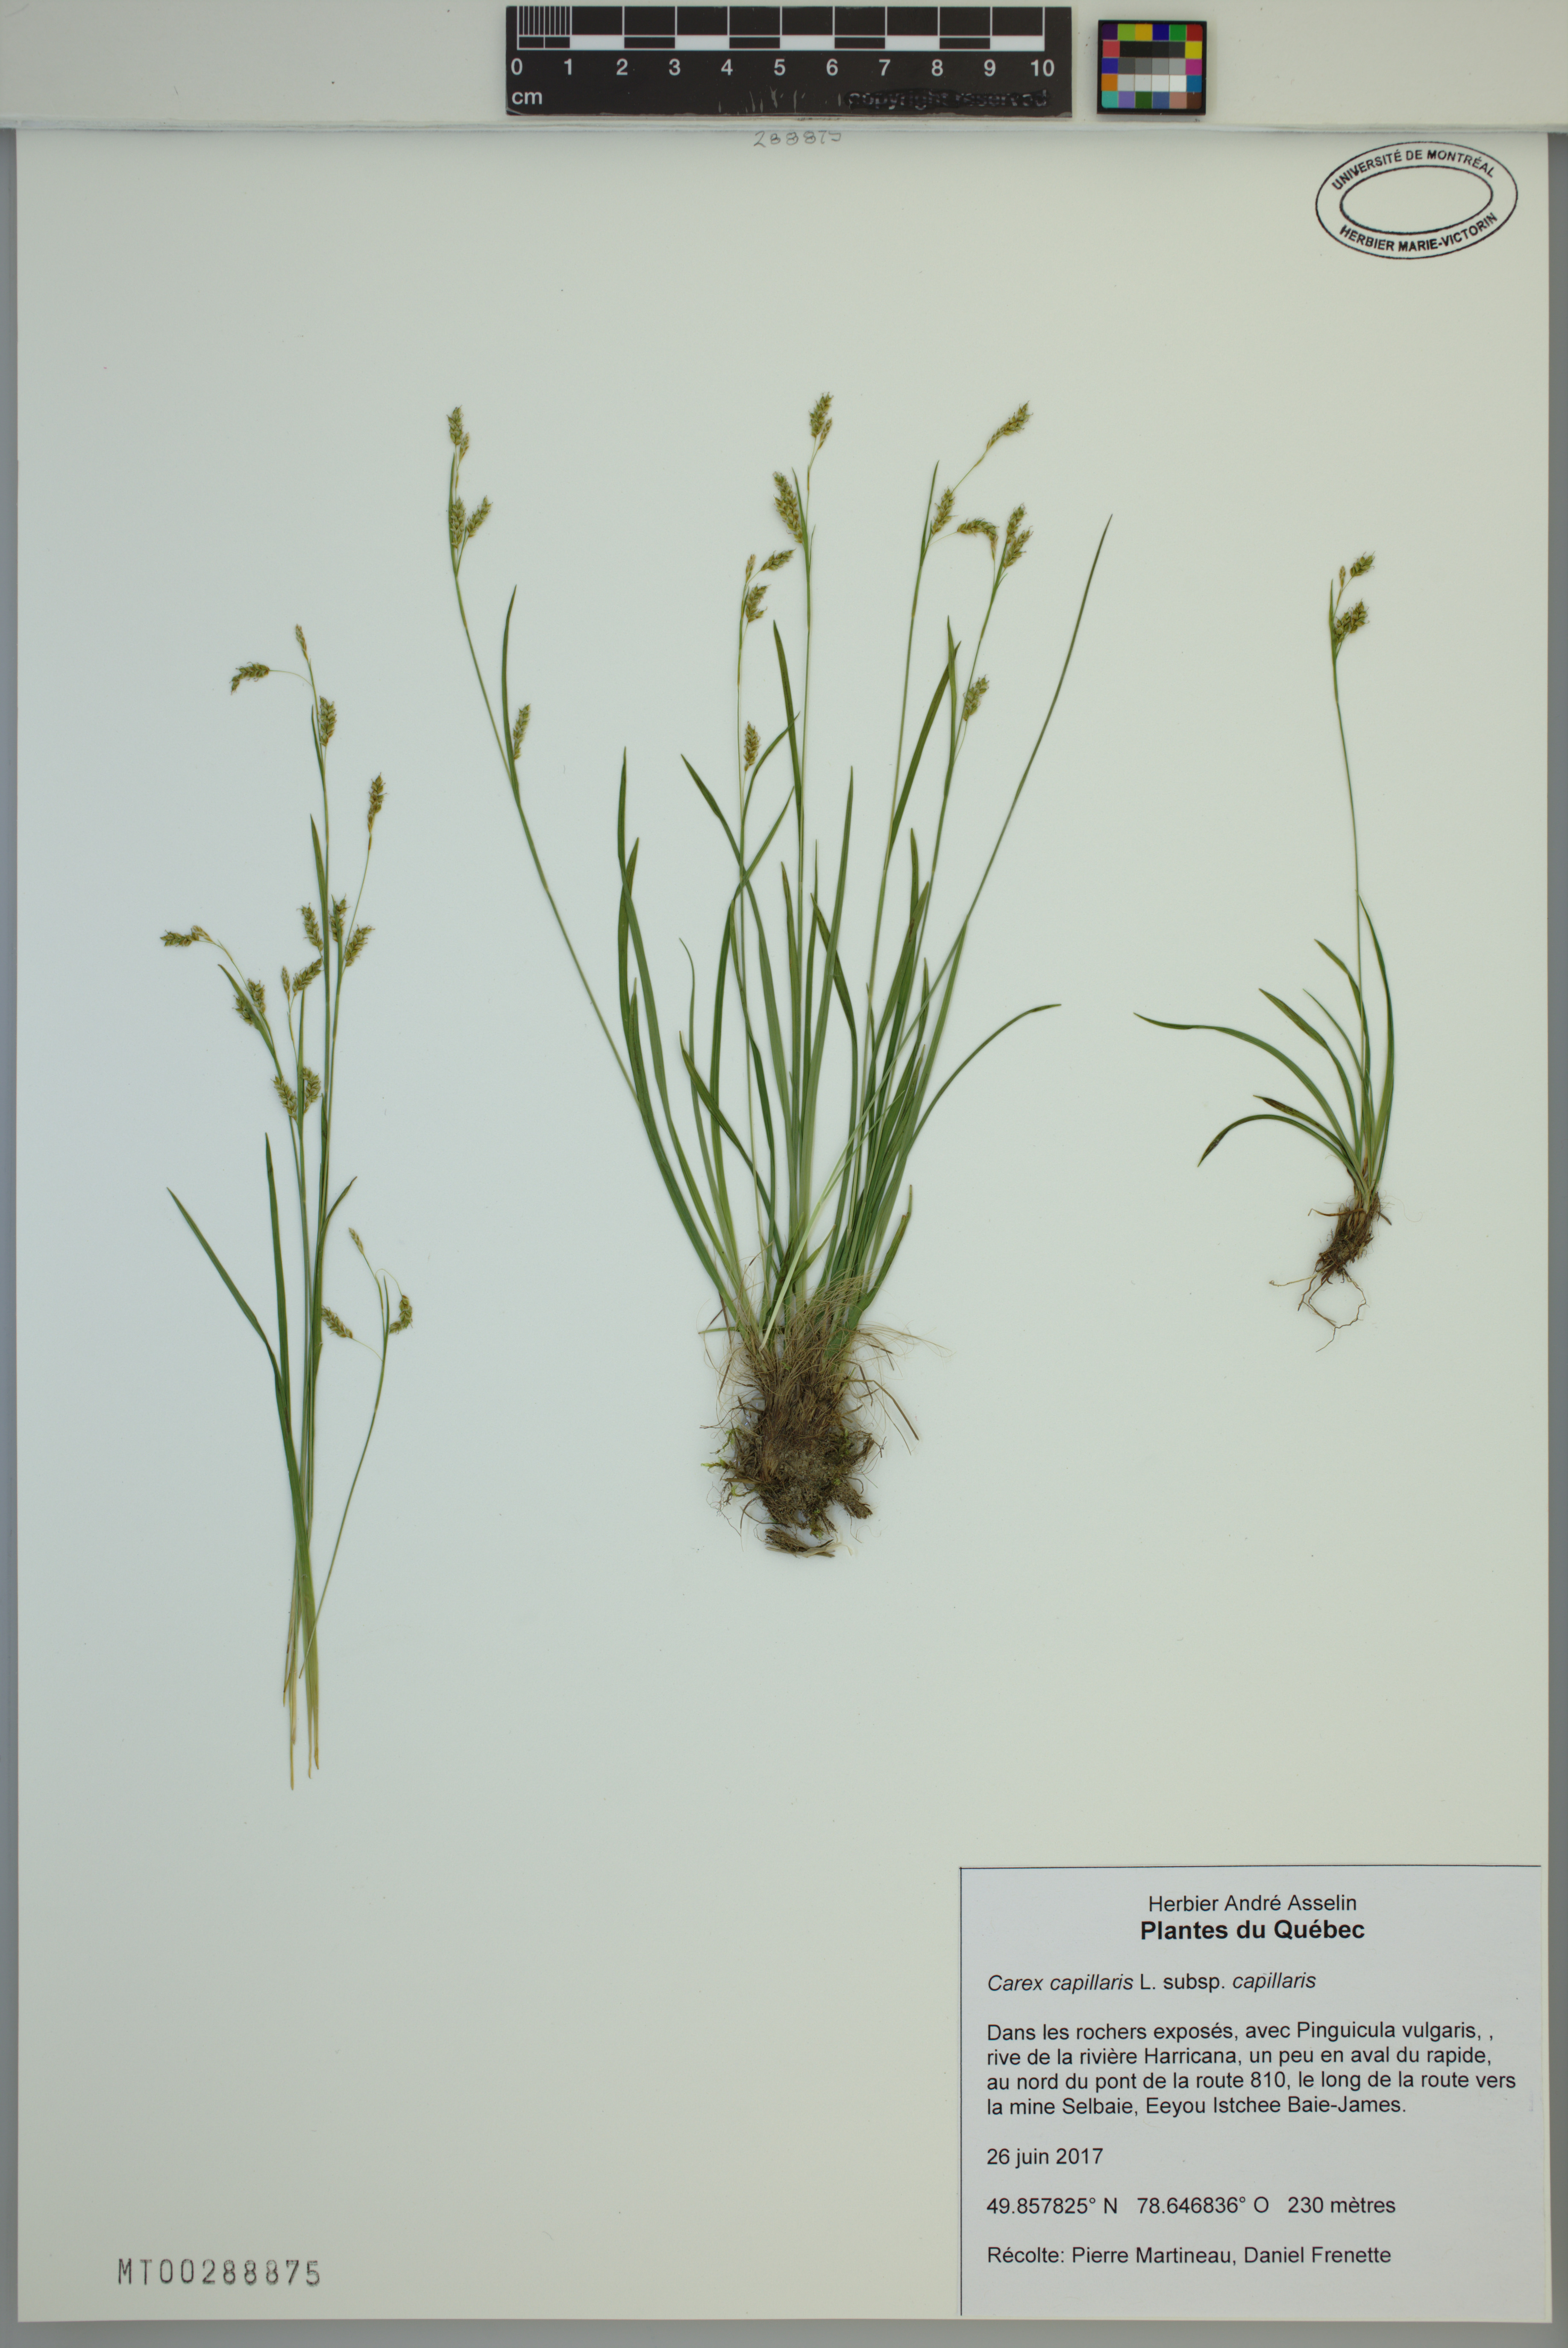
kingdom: Plantae
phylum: Tracheophyta
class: Liliopsida
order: Poales
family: Cyperaceae
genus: Carex
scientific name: Carex capillaris
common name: Hair sedge
